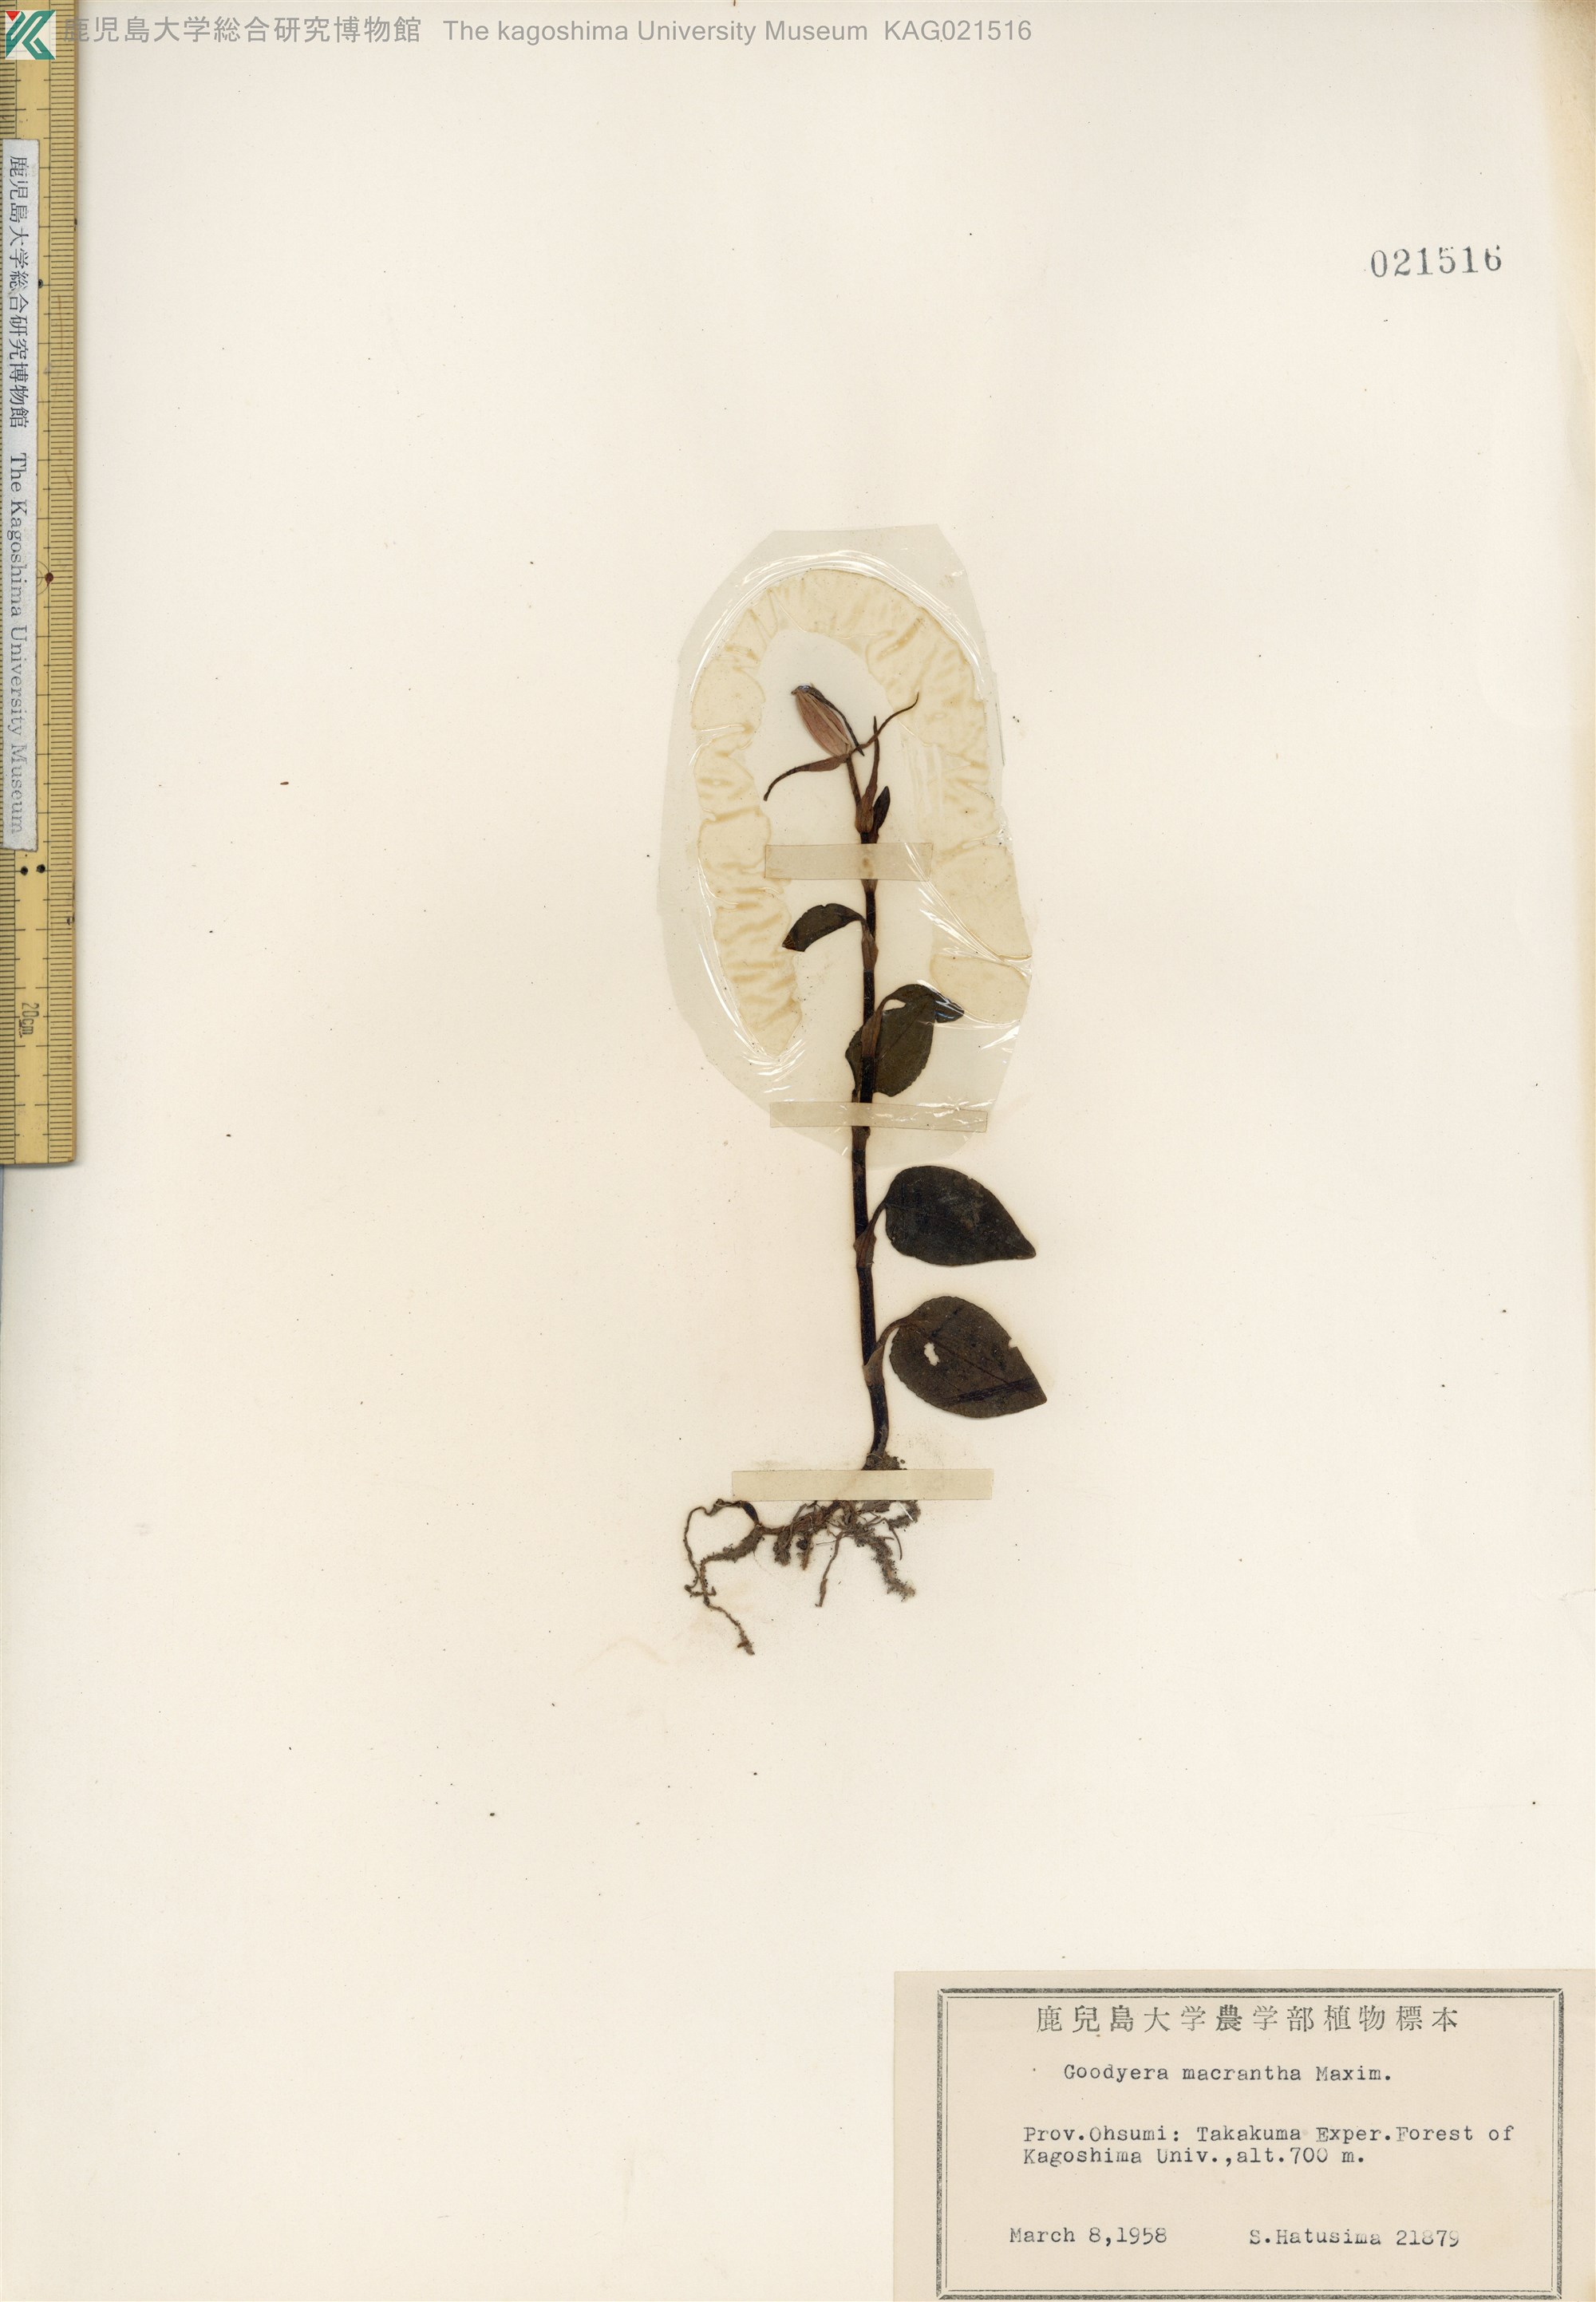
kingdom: Plantae
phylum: Tracheophyta
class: Liliopsida
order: Asparagales
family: Orchidaceae
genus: Goodyera
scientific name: Goodyera biflora
